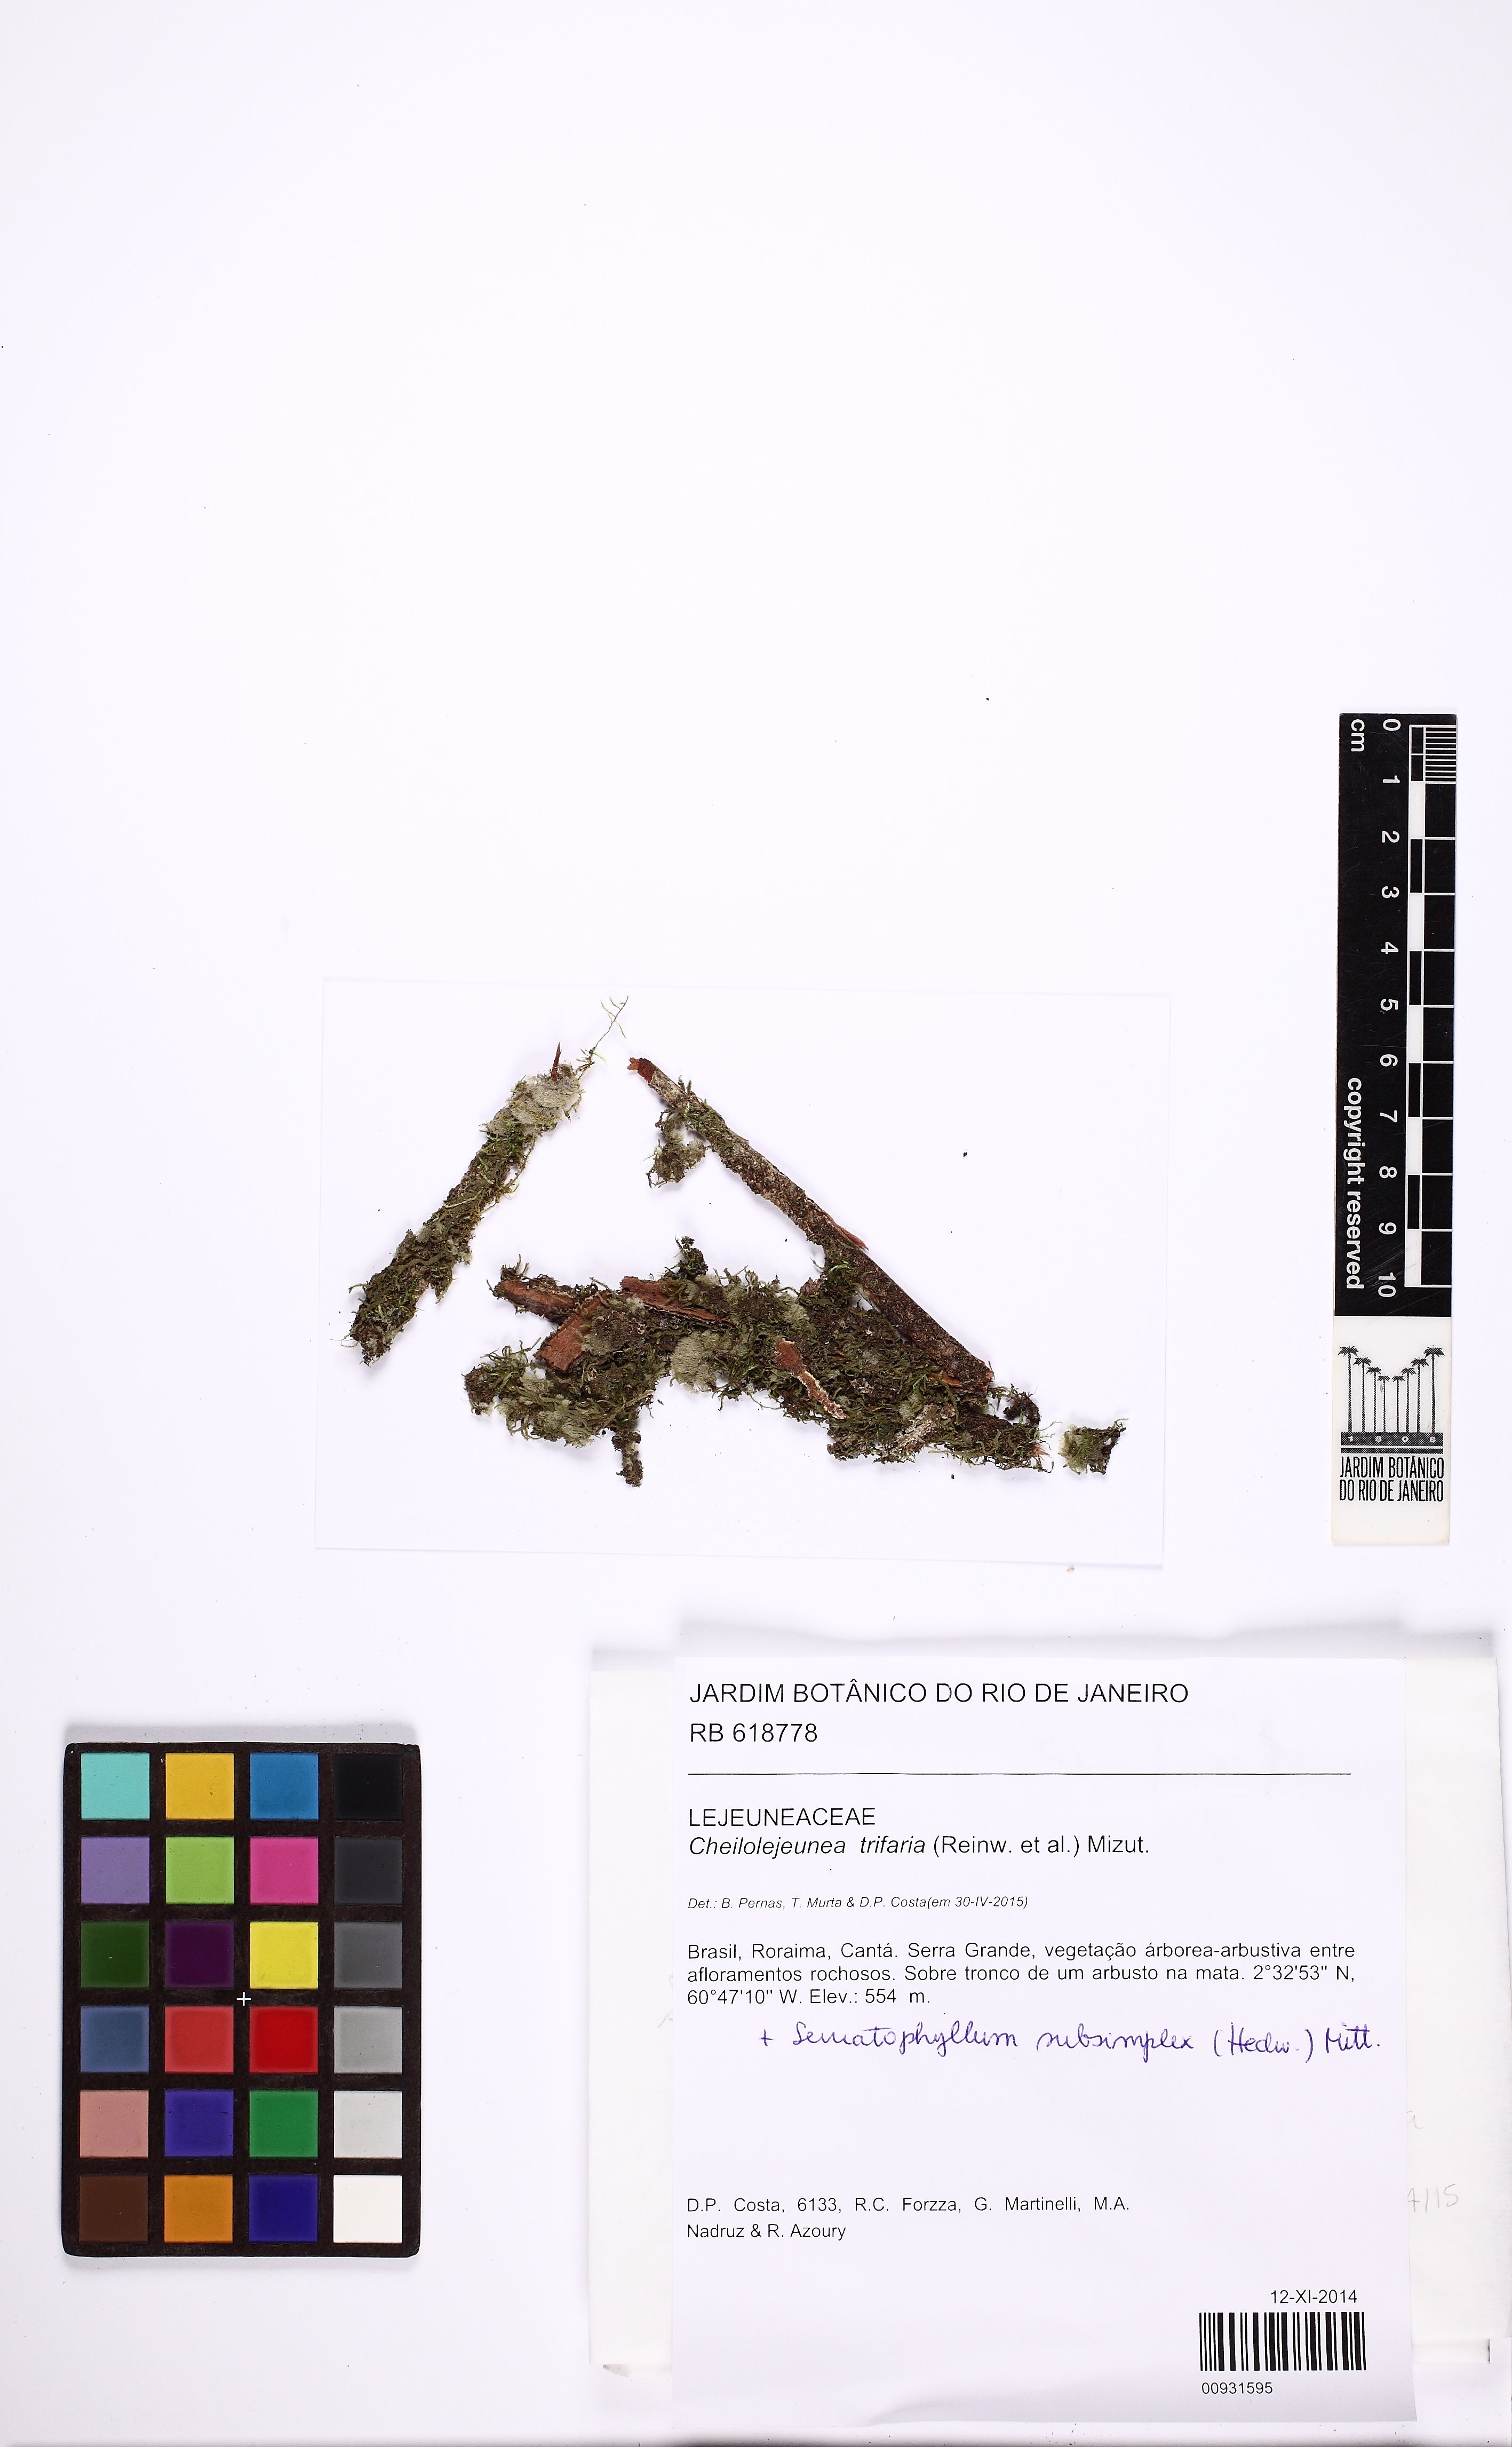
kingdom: Plantae
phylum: Marchantiophyta
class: Jungermanniopsida
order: Porellales
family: Lejeuneaceae
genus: Cheilolejeunea
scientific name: Cheilolejeunea trifaria
